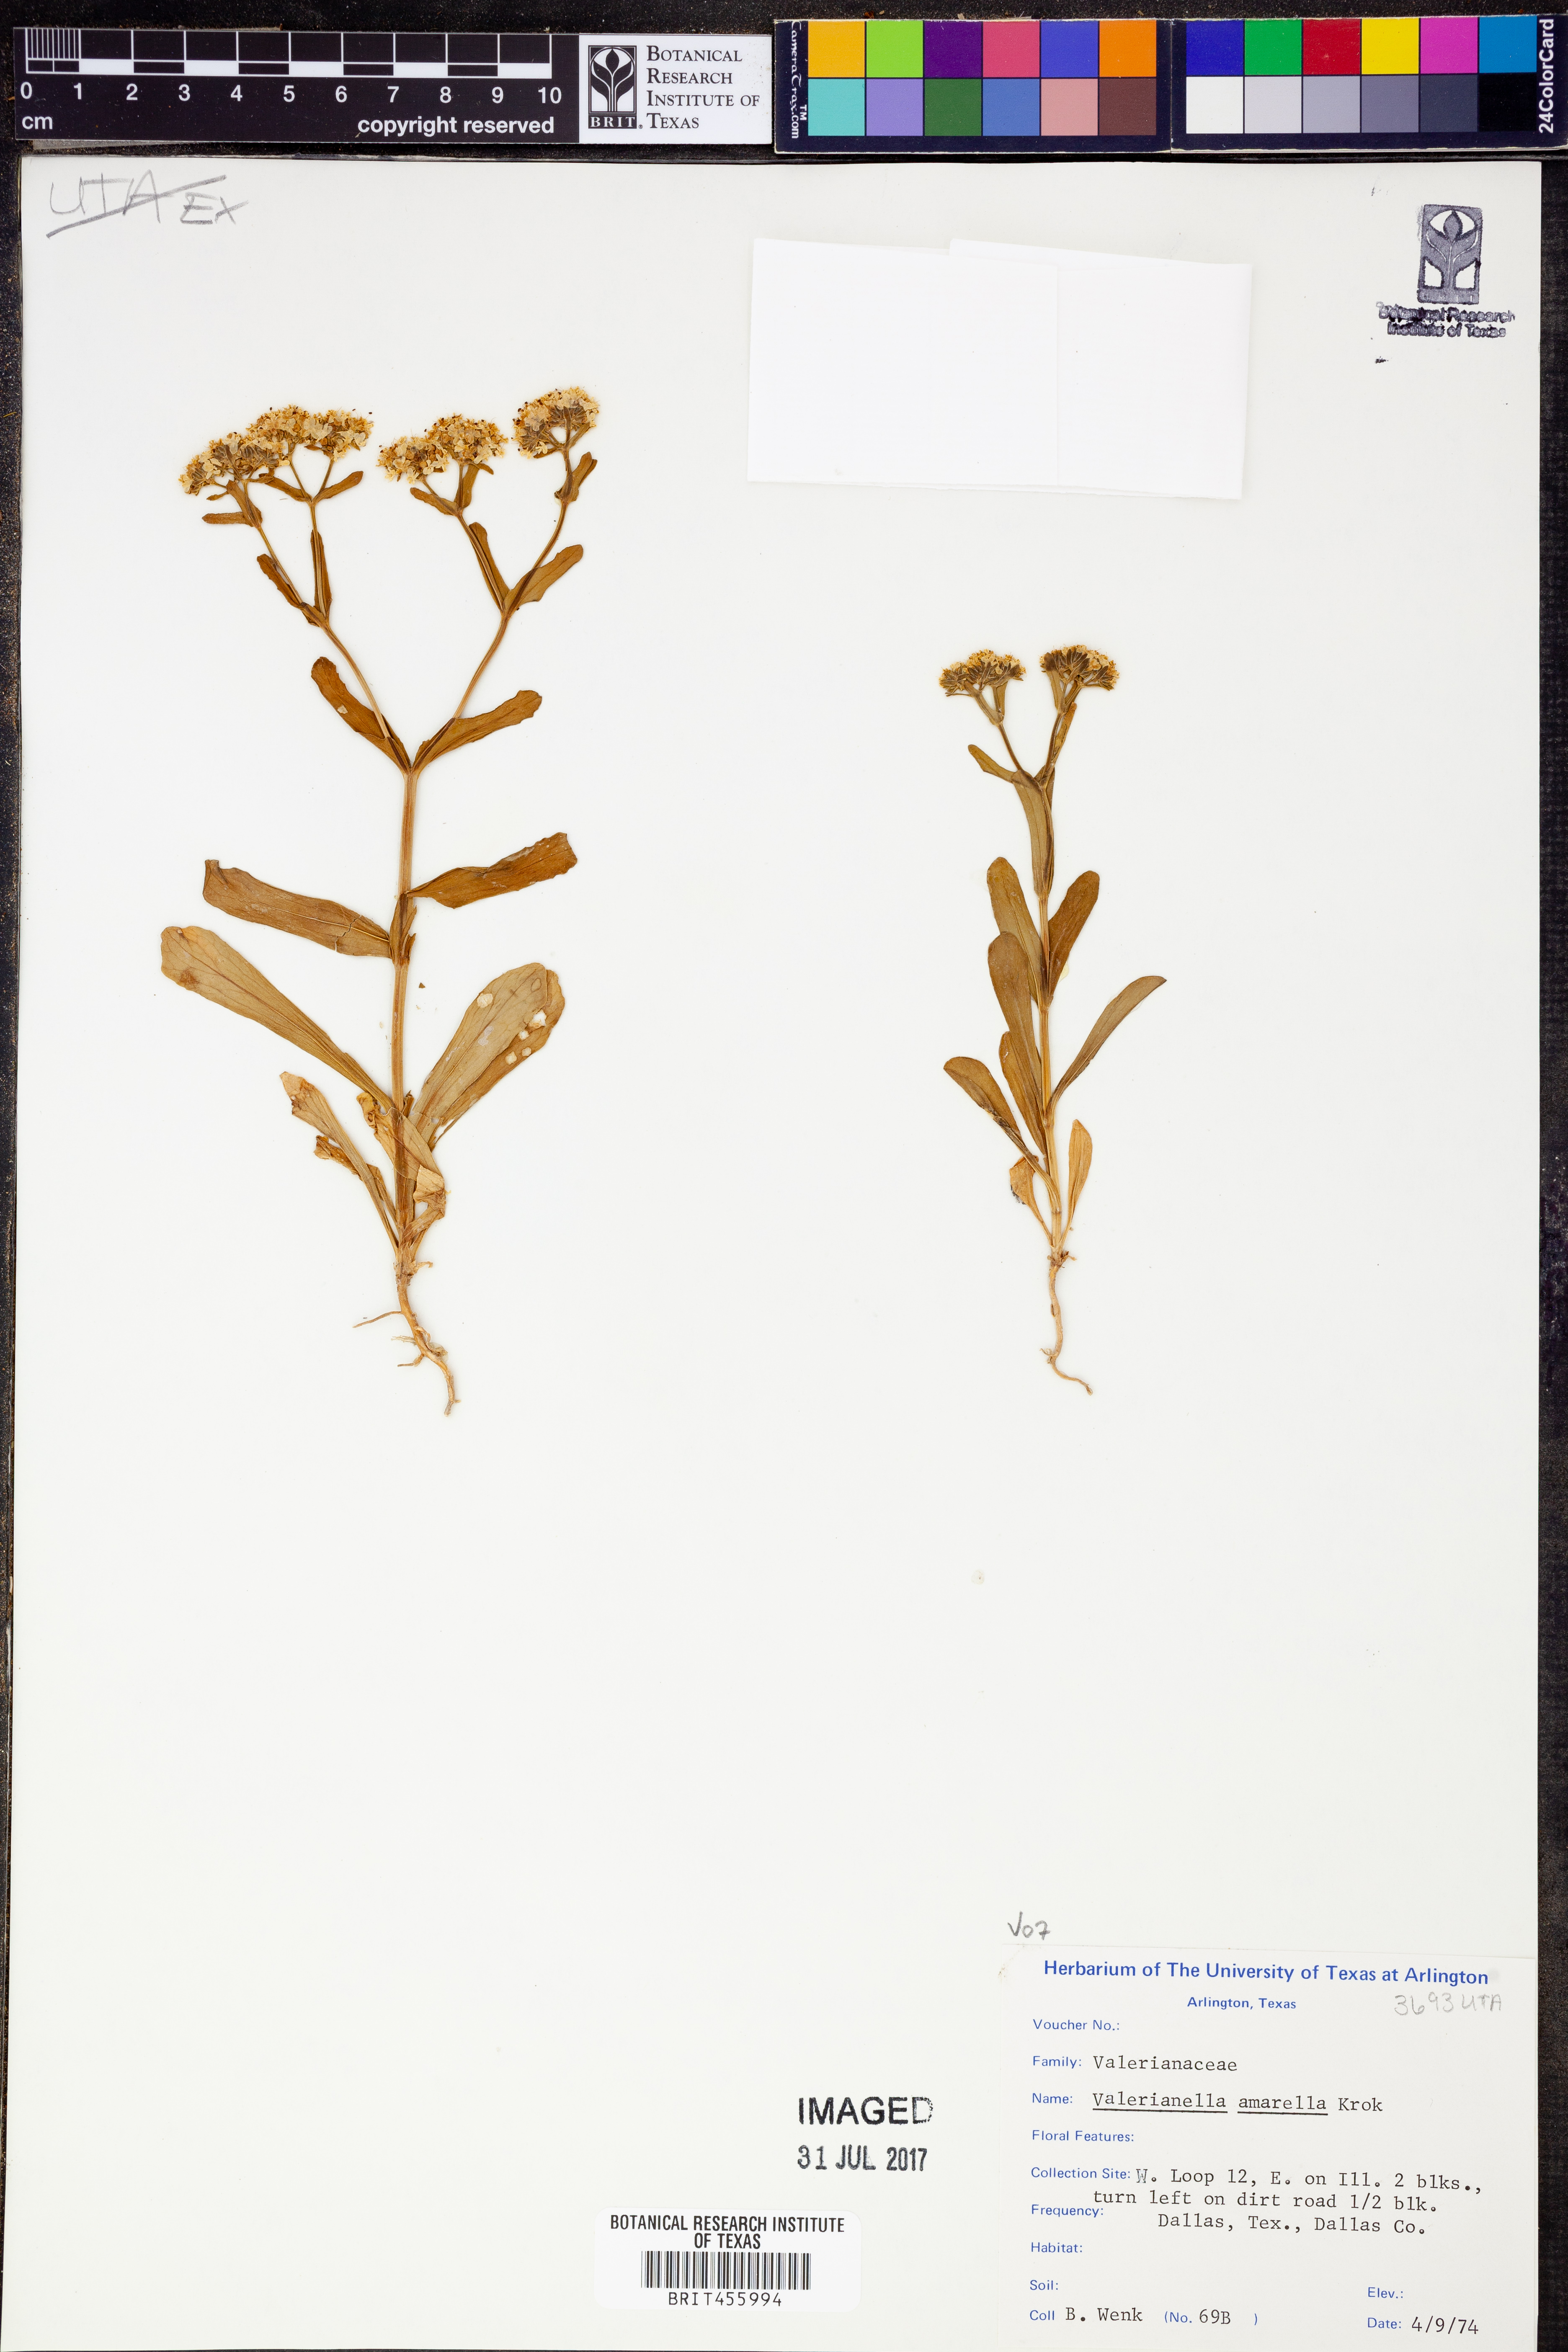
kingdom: Plantae
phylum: Tracheophyta
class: Magnoliopsida
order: Dipsacales
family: Caprifoliaceae
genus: Valerianella
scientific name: Valerianella amarella
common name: Hariy cornsalad
